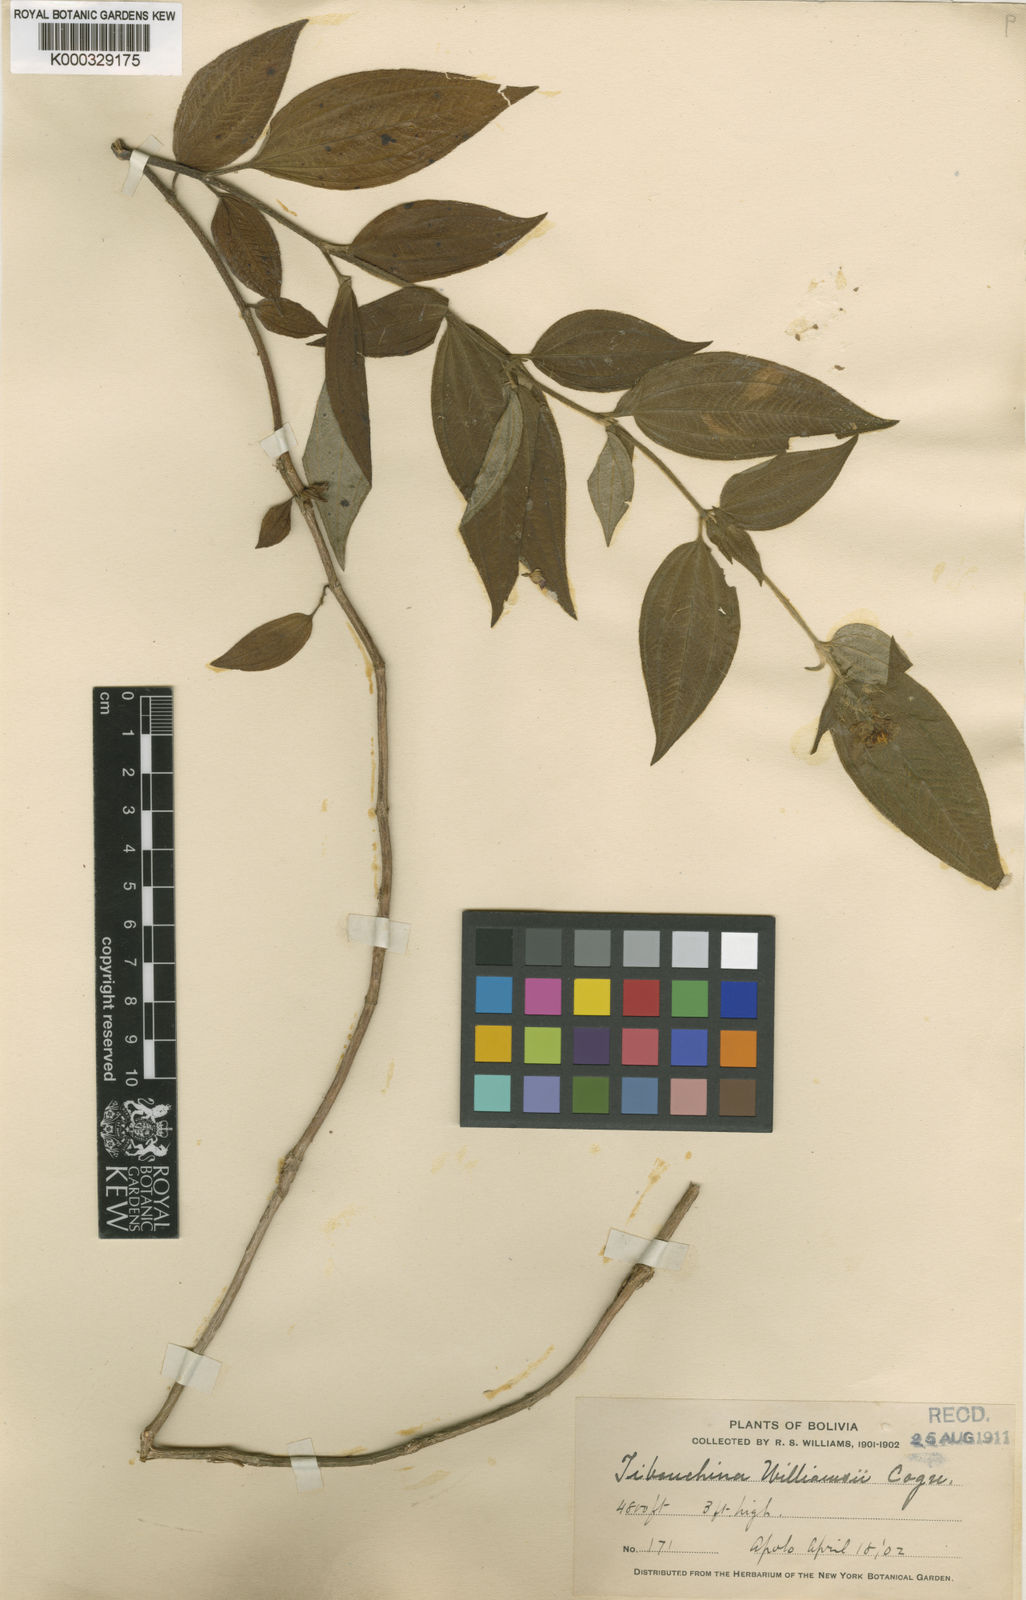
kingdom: Plantae
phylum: Tracheophyta
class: Magnoliopsida
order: Myrtales
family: Melastomataceae
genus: Tibouchina
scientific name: Tibouchina
